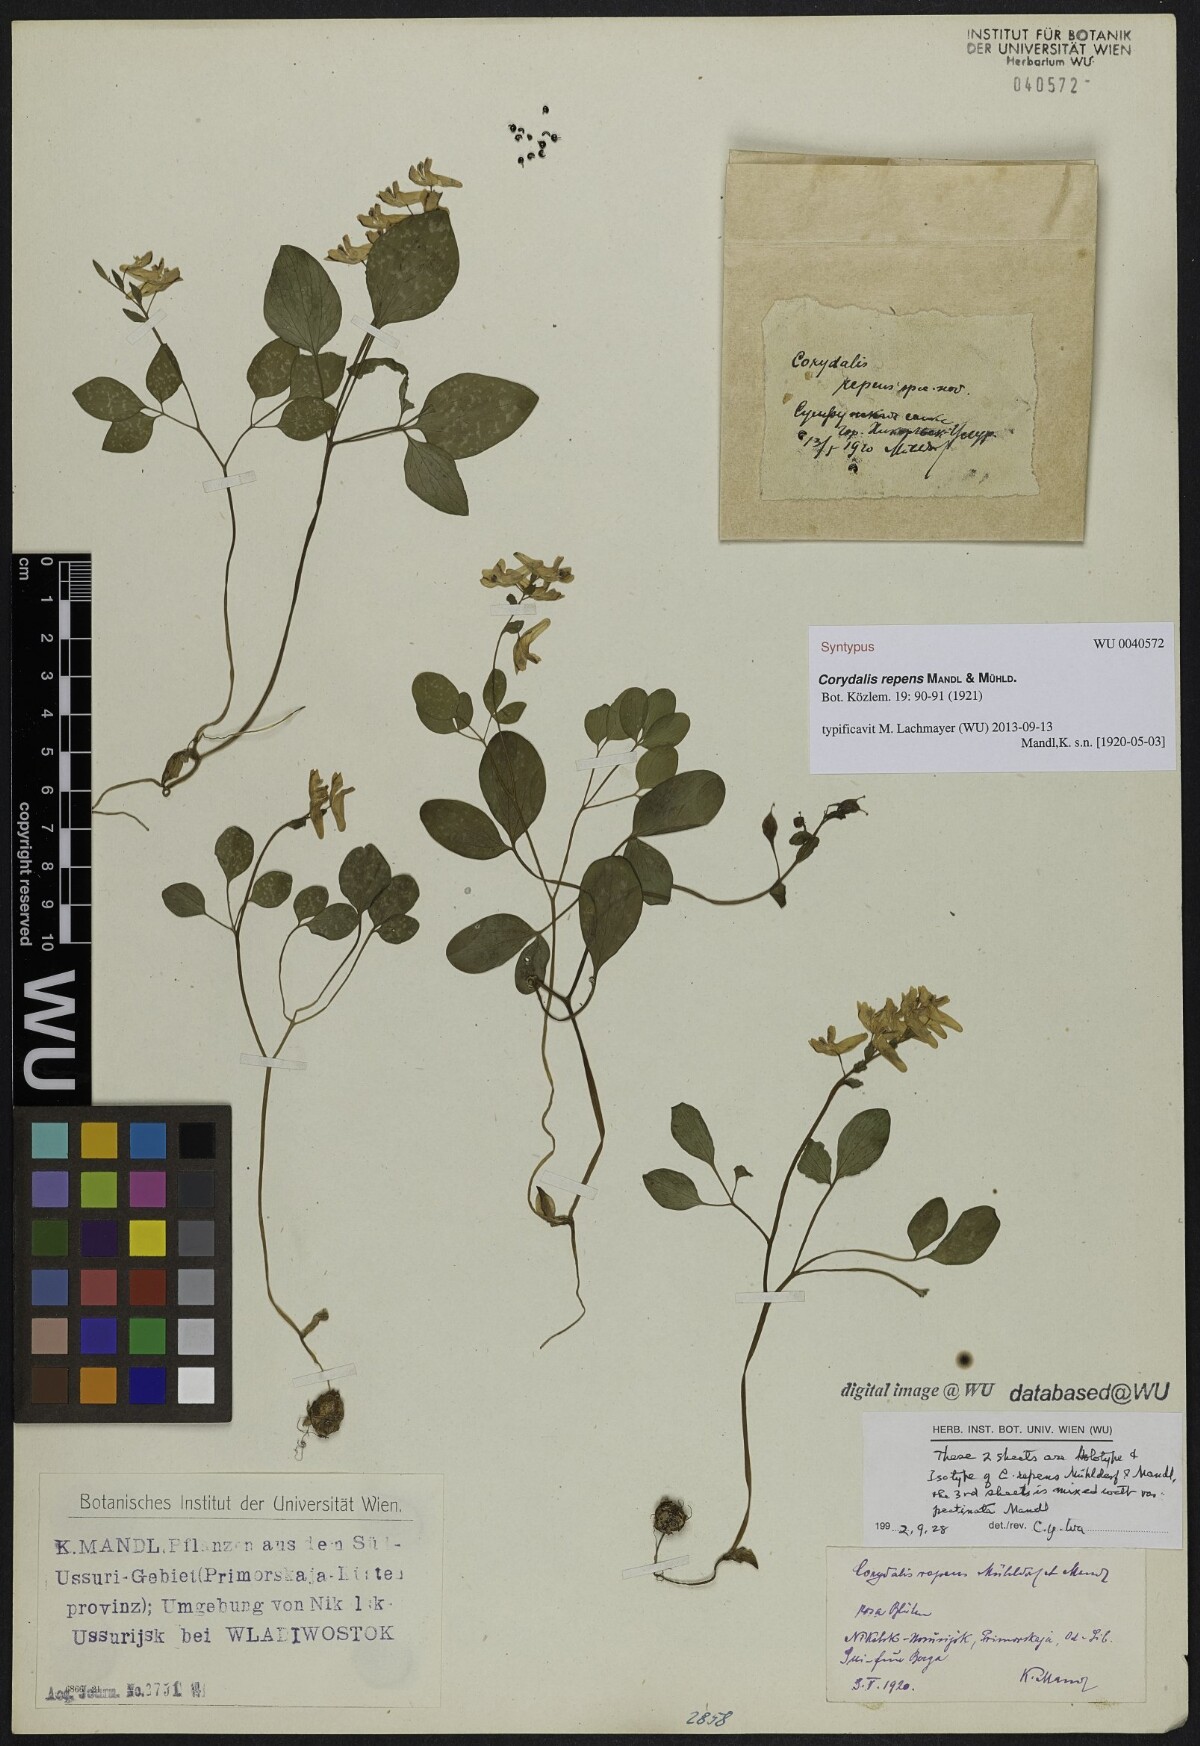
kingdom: Plantae
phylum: Tracheophyta
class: Magnoliopsida
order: Ranunculales
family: Papaveraceae
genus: Corydalis
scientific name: Corydalis repens
